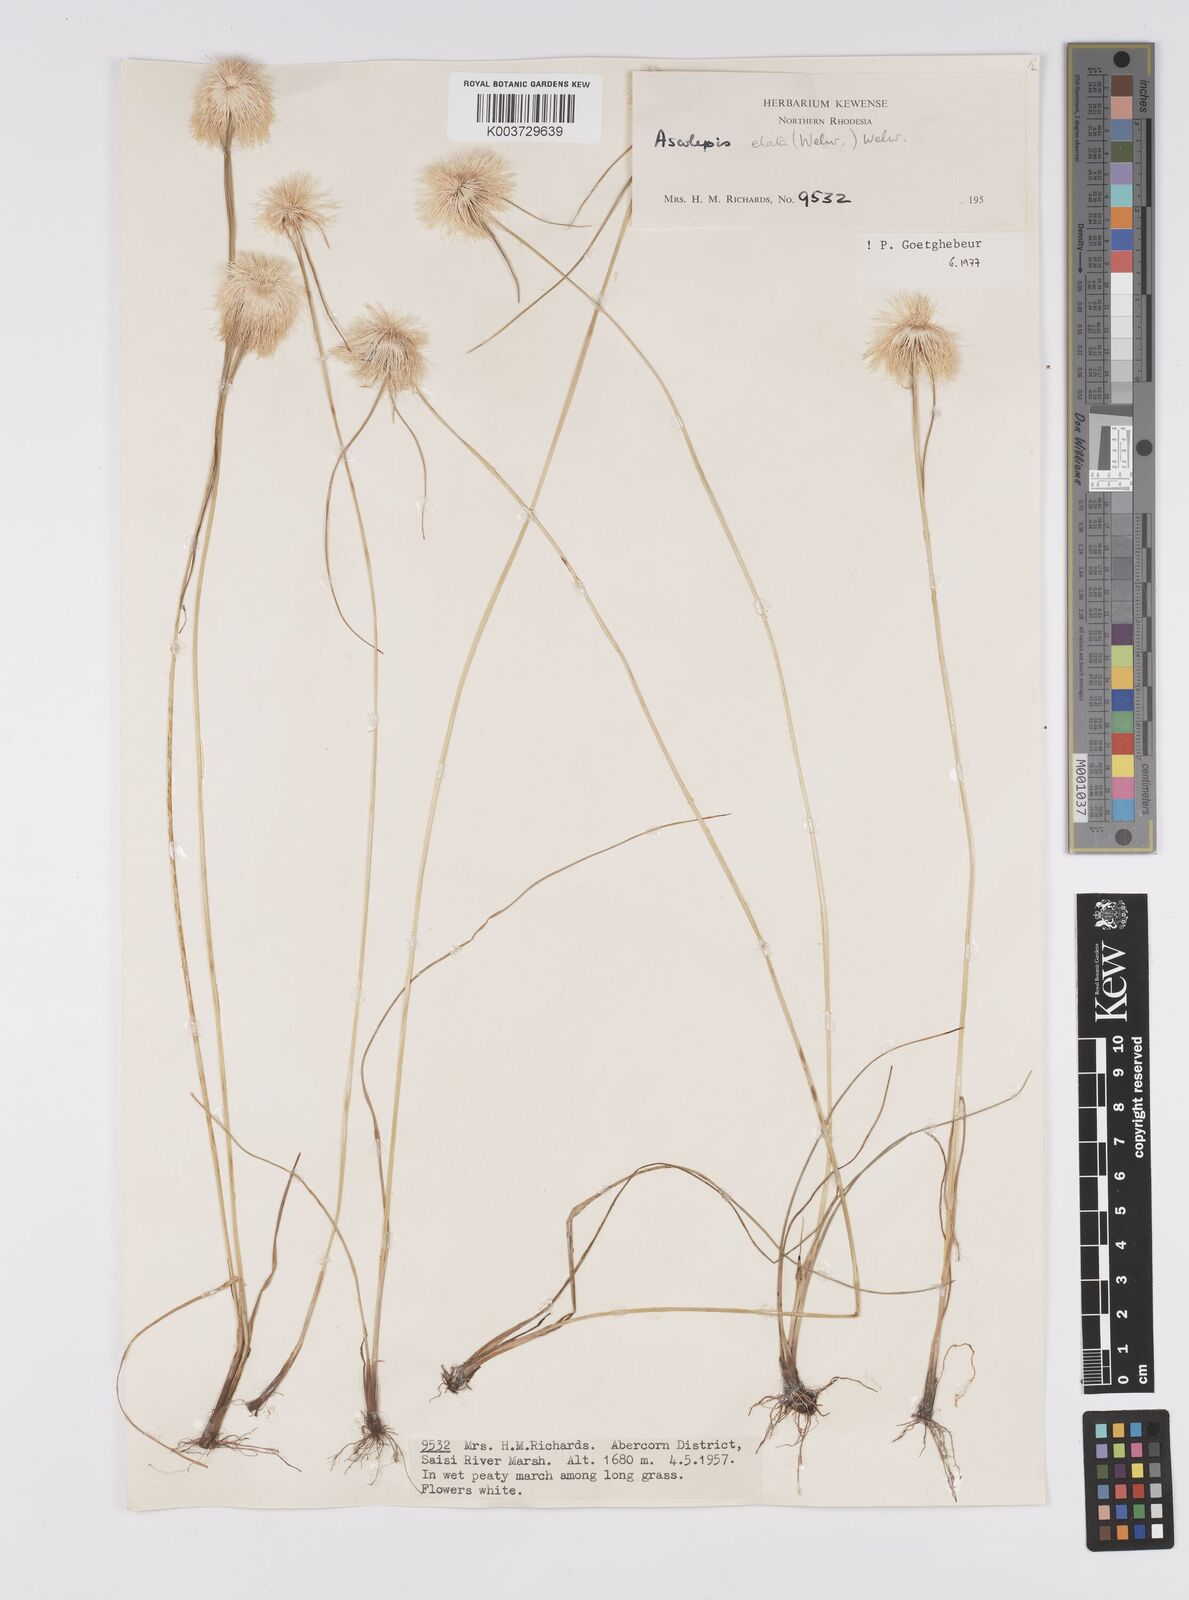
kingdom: Plantae
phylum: Tracheophyta
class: Liliopsida
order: Poales
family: Cyperaceae
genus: Cyperus
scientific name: Cyperus
